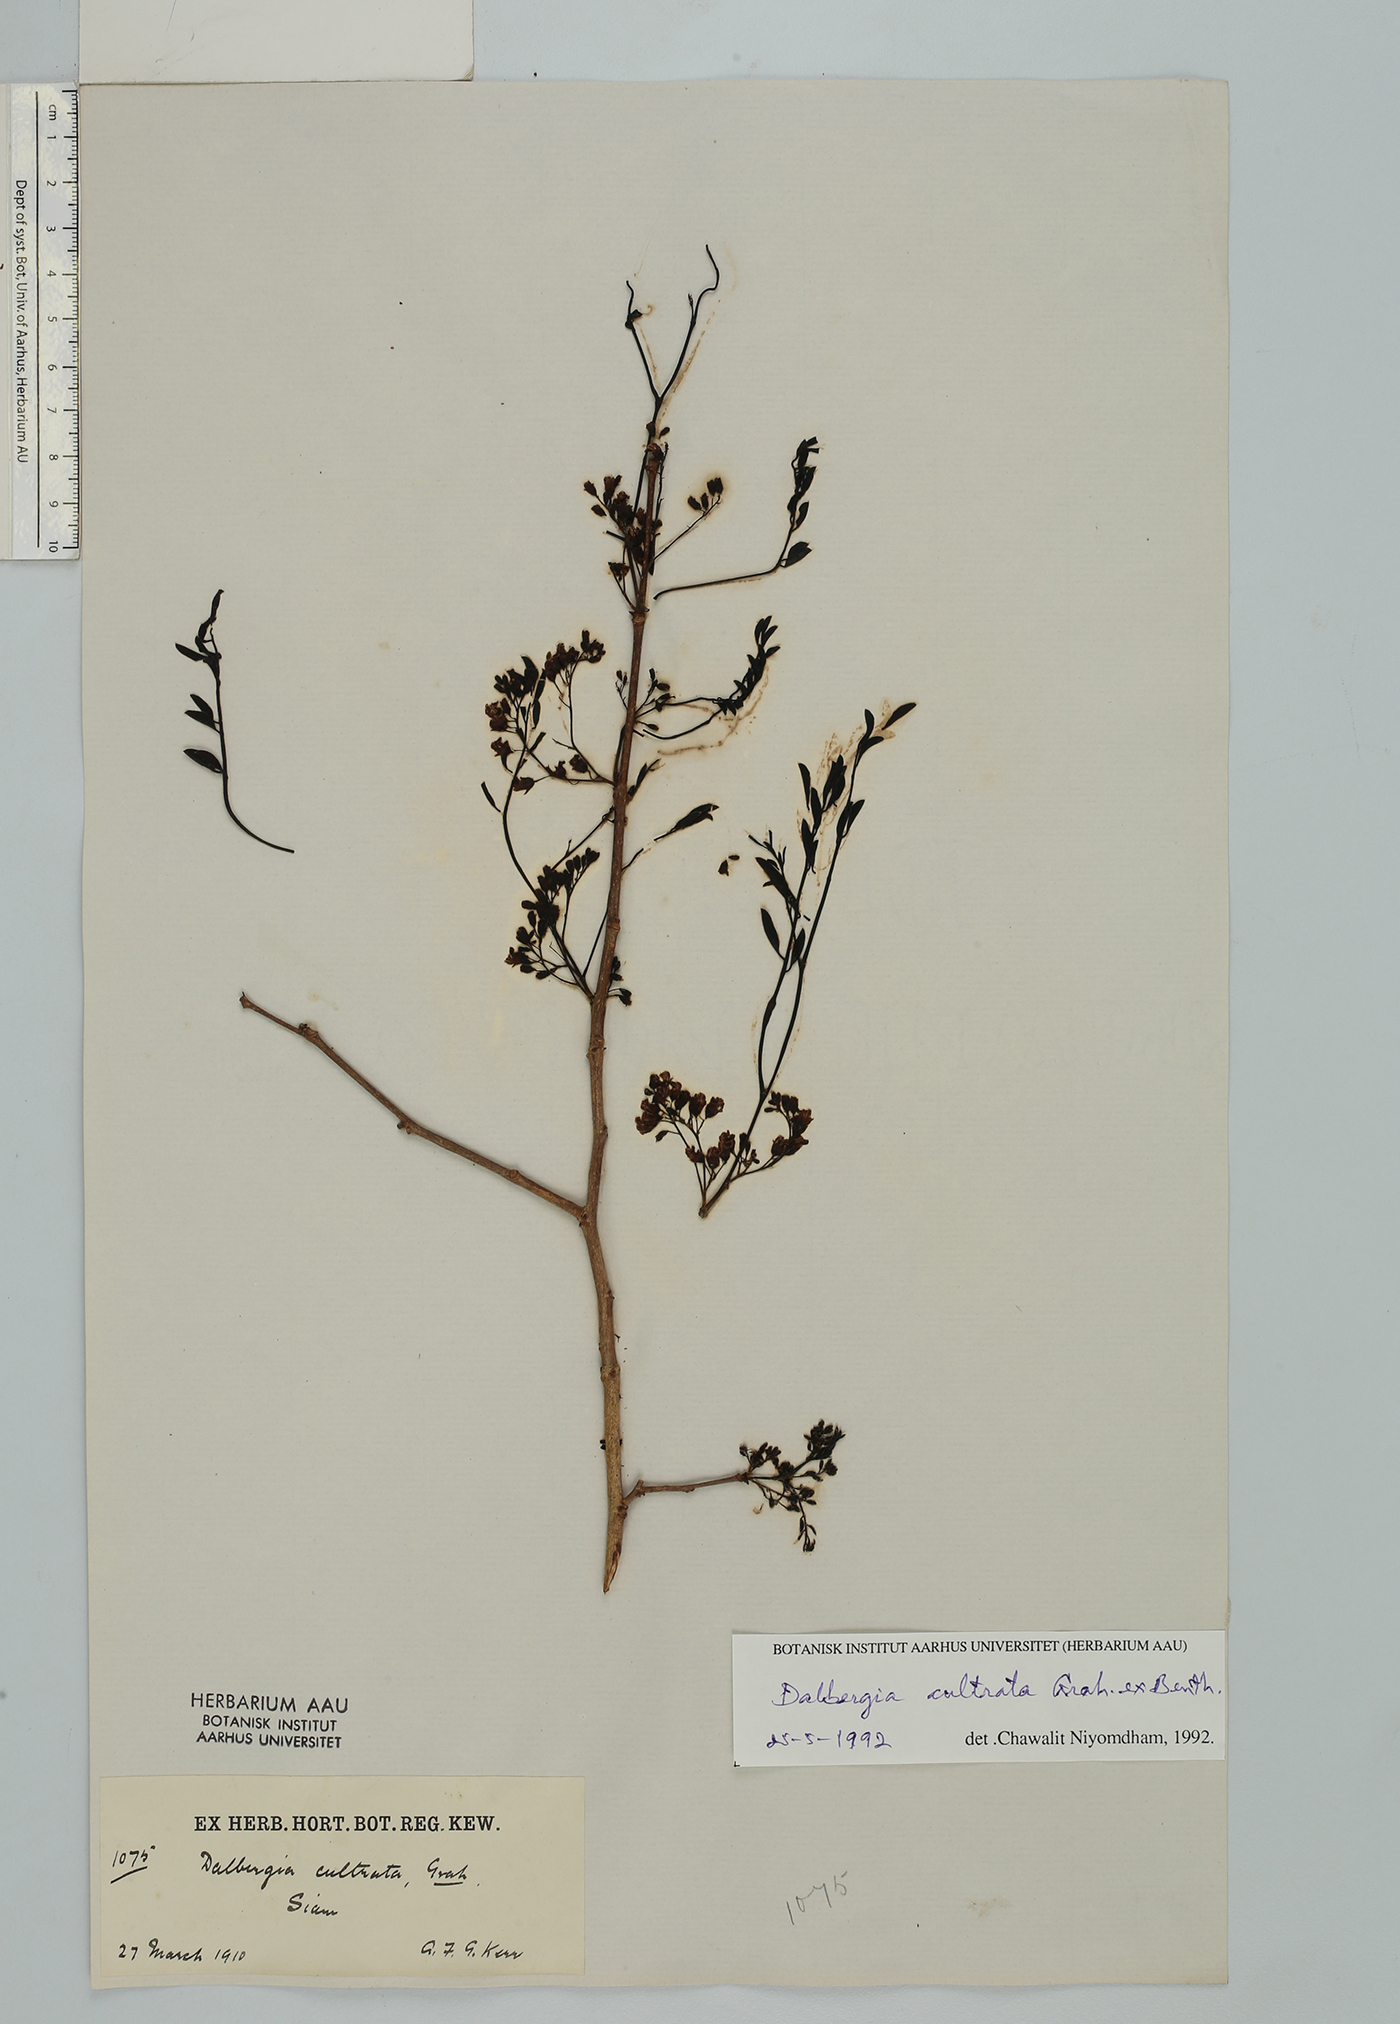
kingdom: Plantae
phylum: Tracheophyta
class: Magnoliopsida
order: Fabales
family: Fabaceae
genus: Dalbergia
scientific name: Dalbergia cultrata
